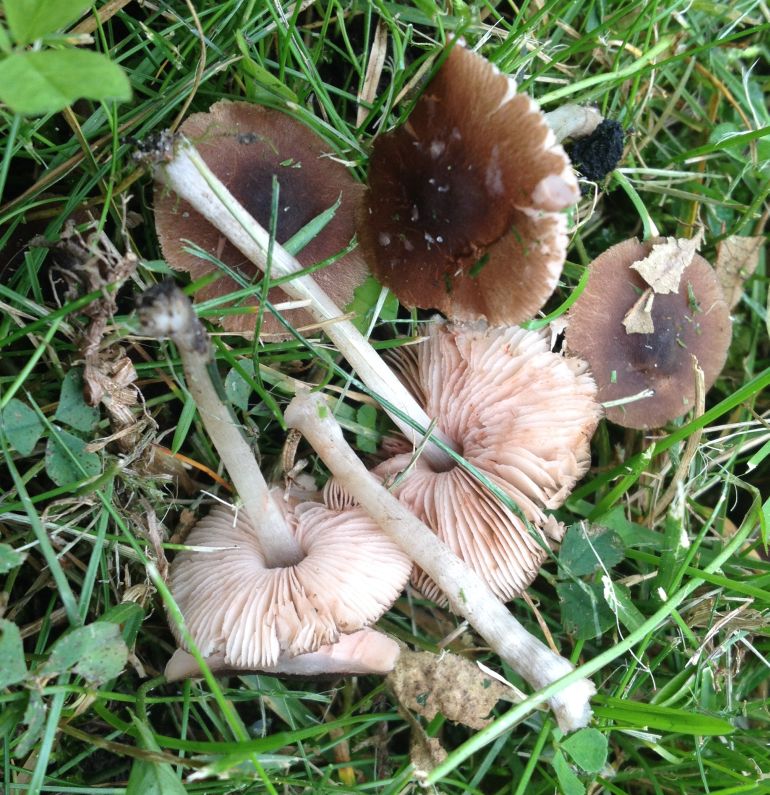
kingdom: Fungi
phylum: Basidiomycota
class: Agaricomycetes
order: Agaricales
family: Pluteaceae
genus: Pluteus
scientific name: Pluteus podospileus
